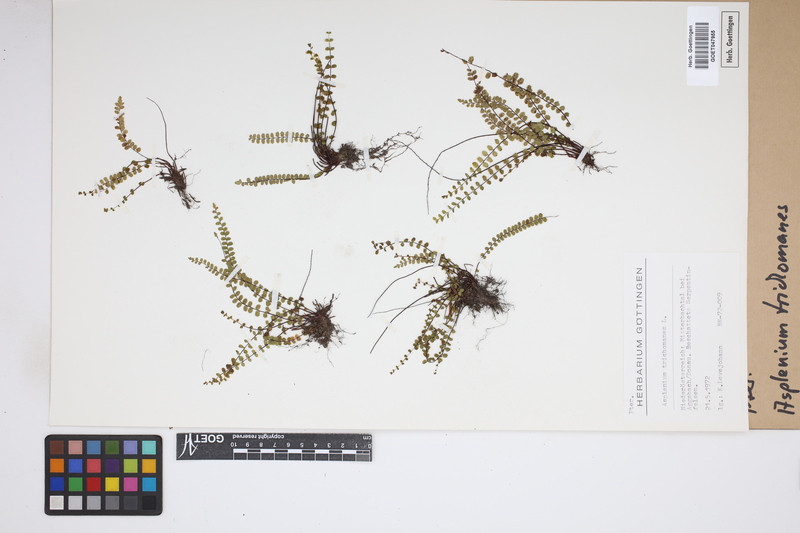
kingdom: Plantae
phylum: Tracheophyta
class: Polypodiopsida
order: Polypodiales
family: Aspleniaceae
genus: Asplenium
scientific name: Asplenium trichomanes
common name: Maidenhair spleenwort
